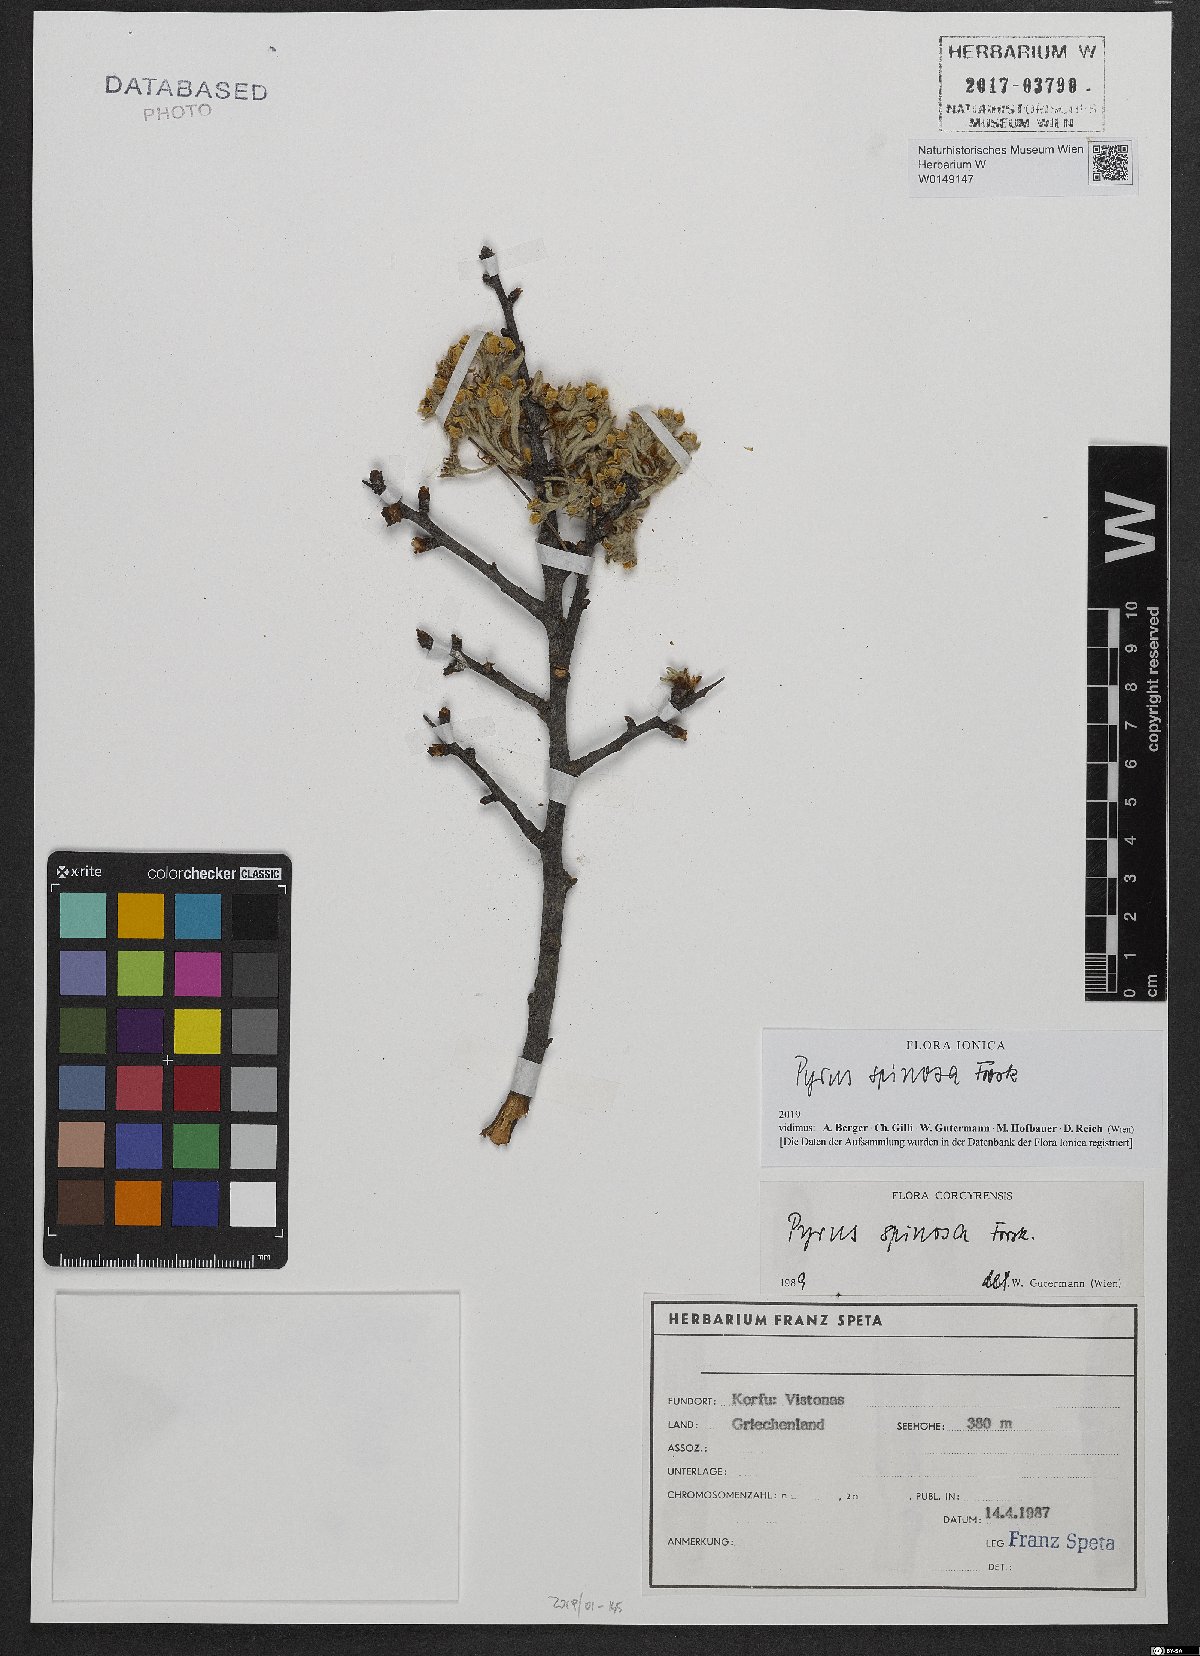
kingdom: Plantae
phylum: Tracheophyta
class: Magnoliopsida
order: Rosales
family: Rosaceae
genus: Pyrus
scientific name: Pyrus spinosa
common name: Almond-leaf pear
